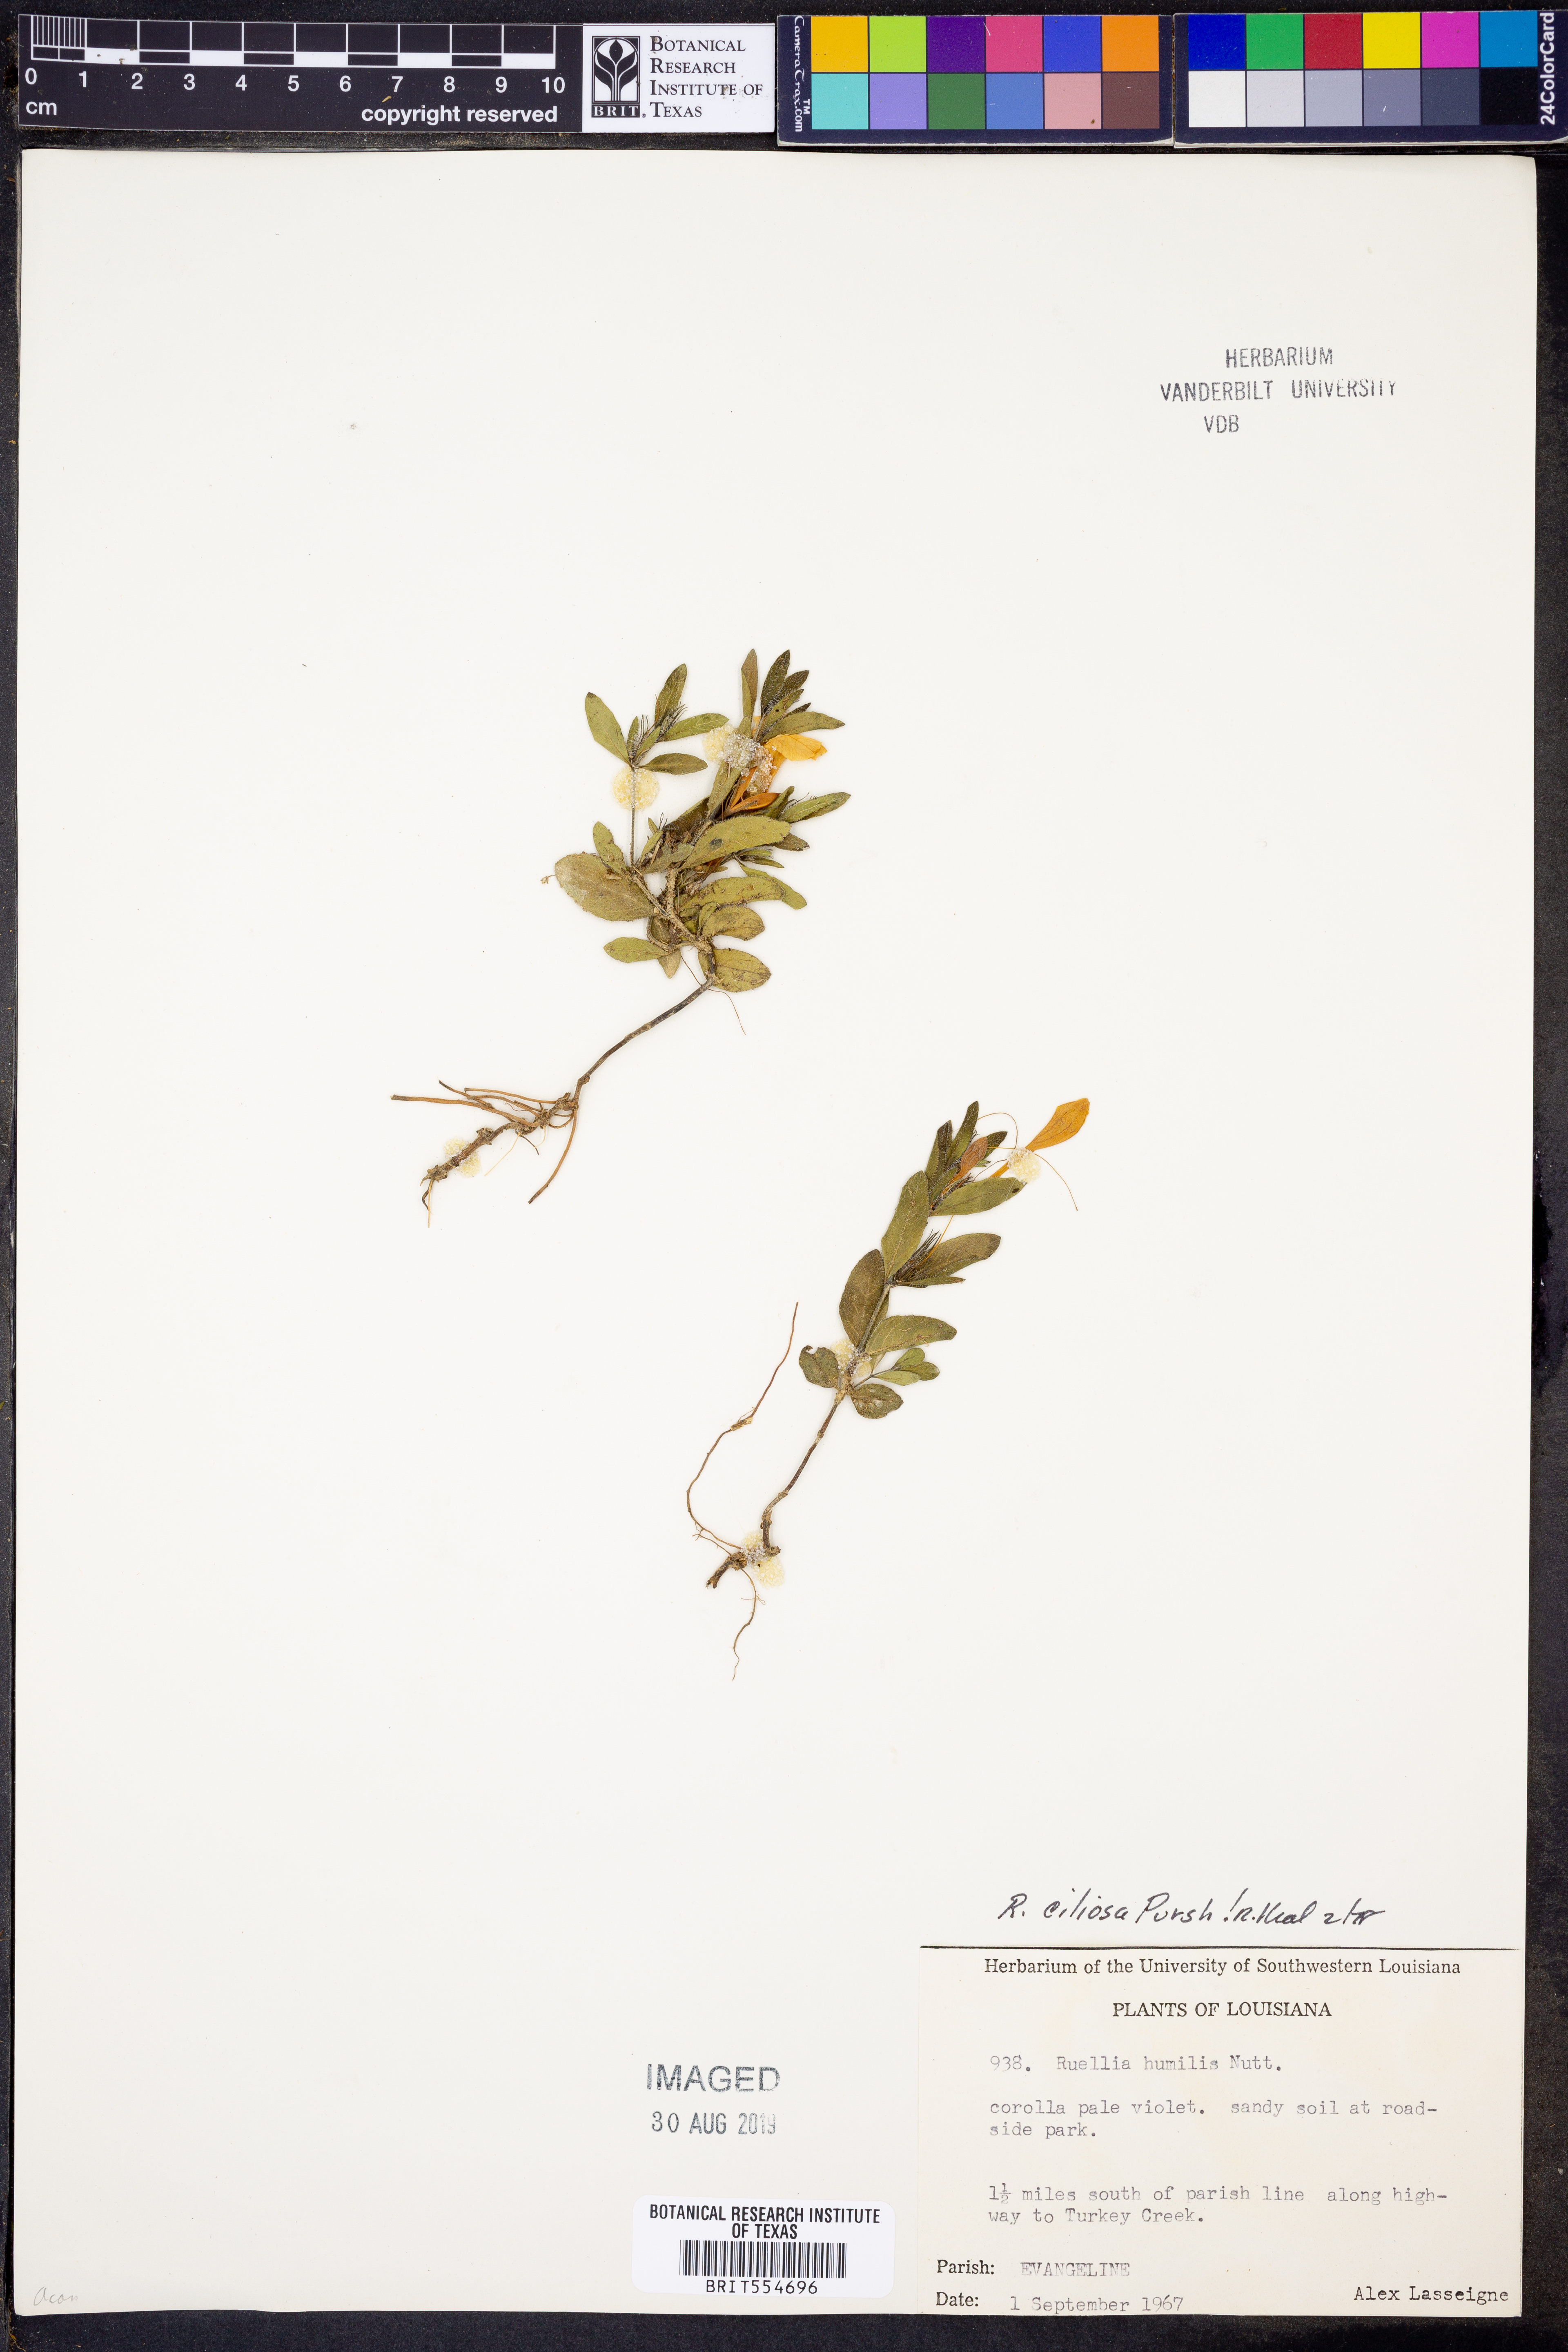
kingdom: Plantae
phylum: Tracheophyta
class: Magnoliopsida
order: Lamiales
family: Acanthaceae
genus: Ruellia
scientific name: Ruellia humilis
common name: Fringe-leaf ruellia
